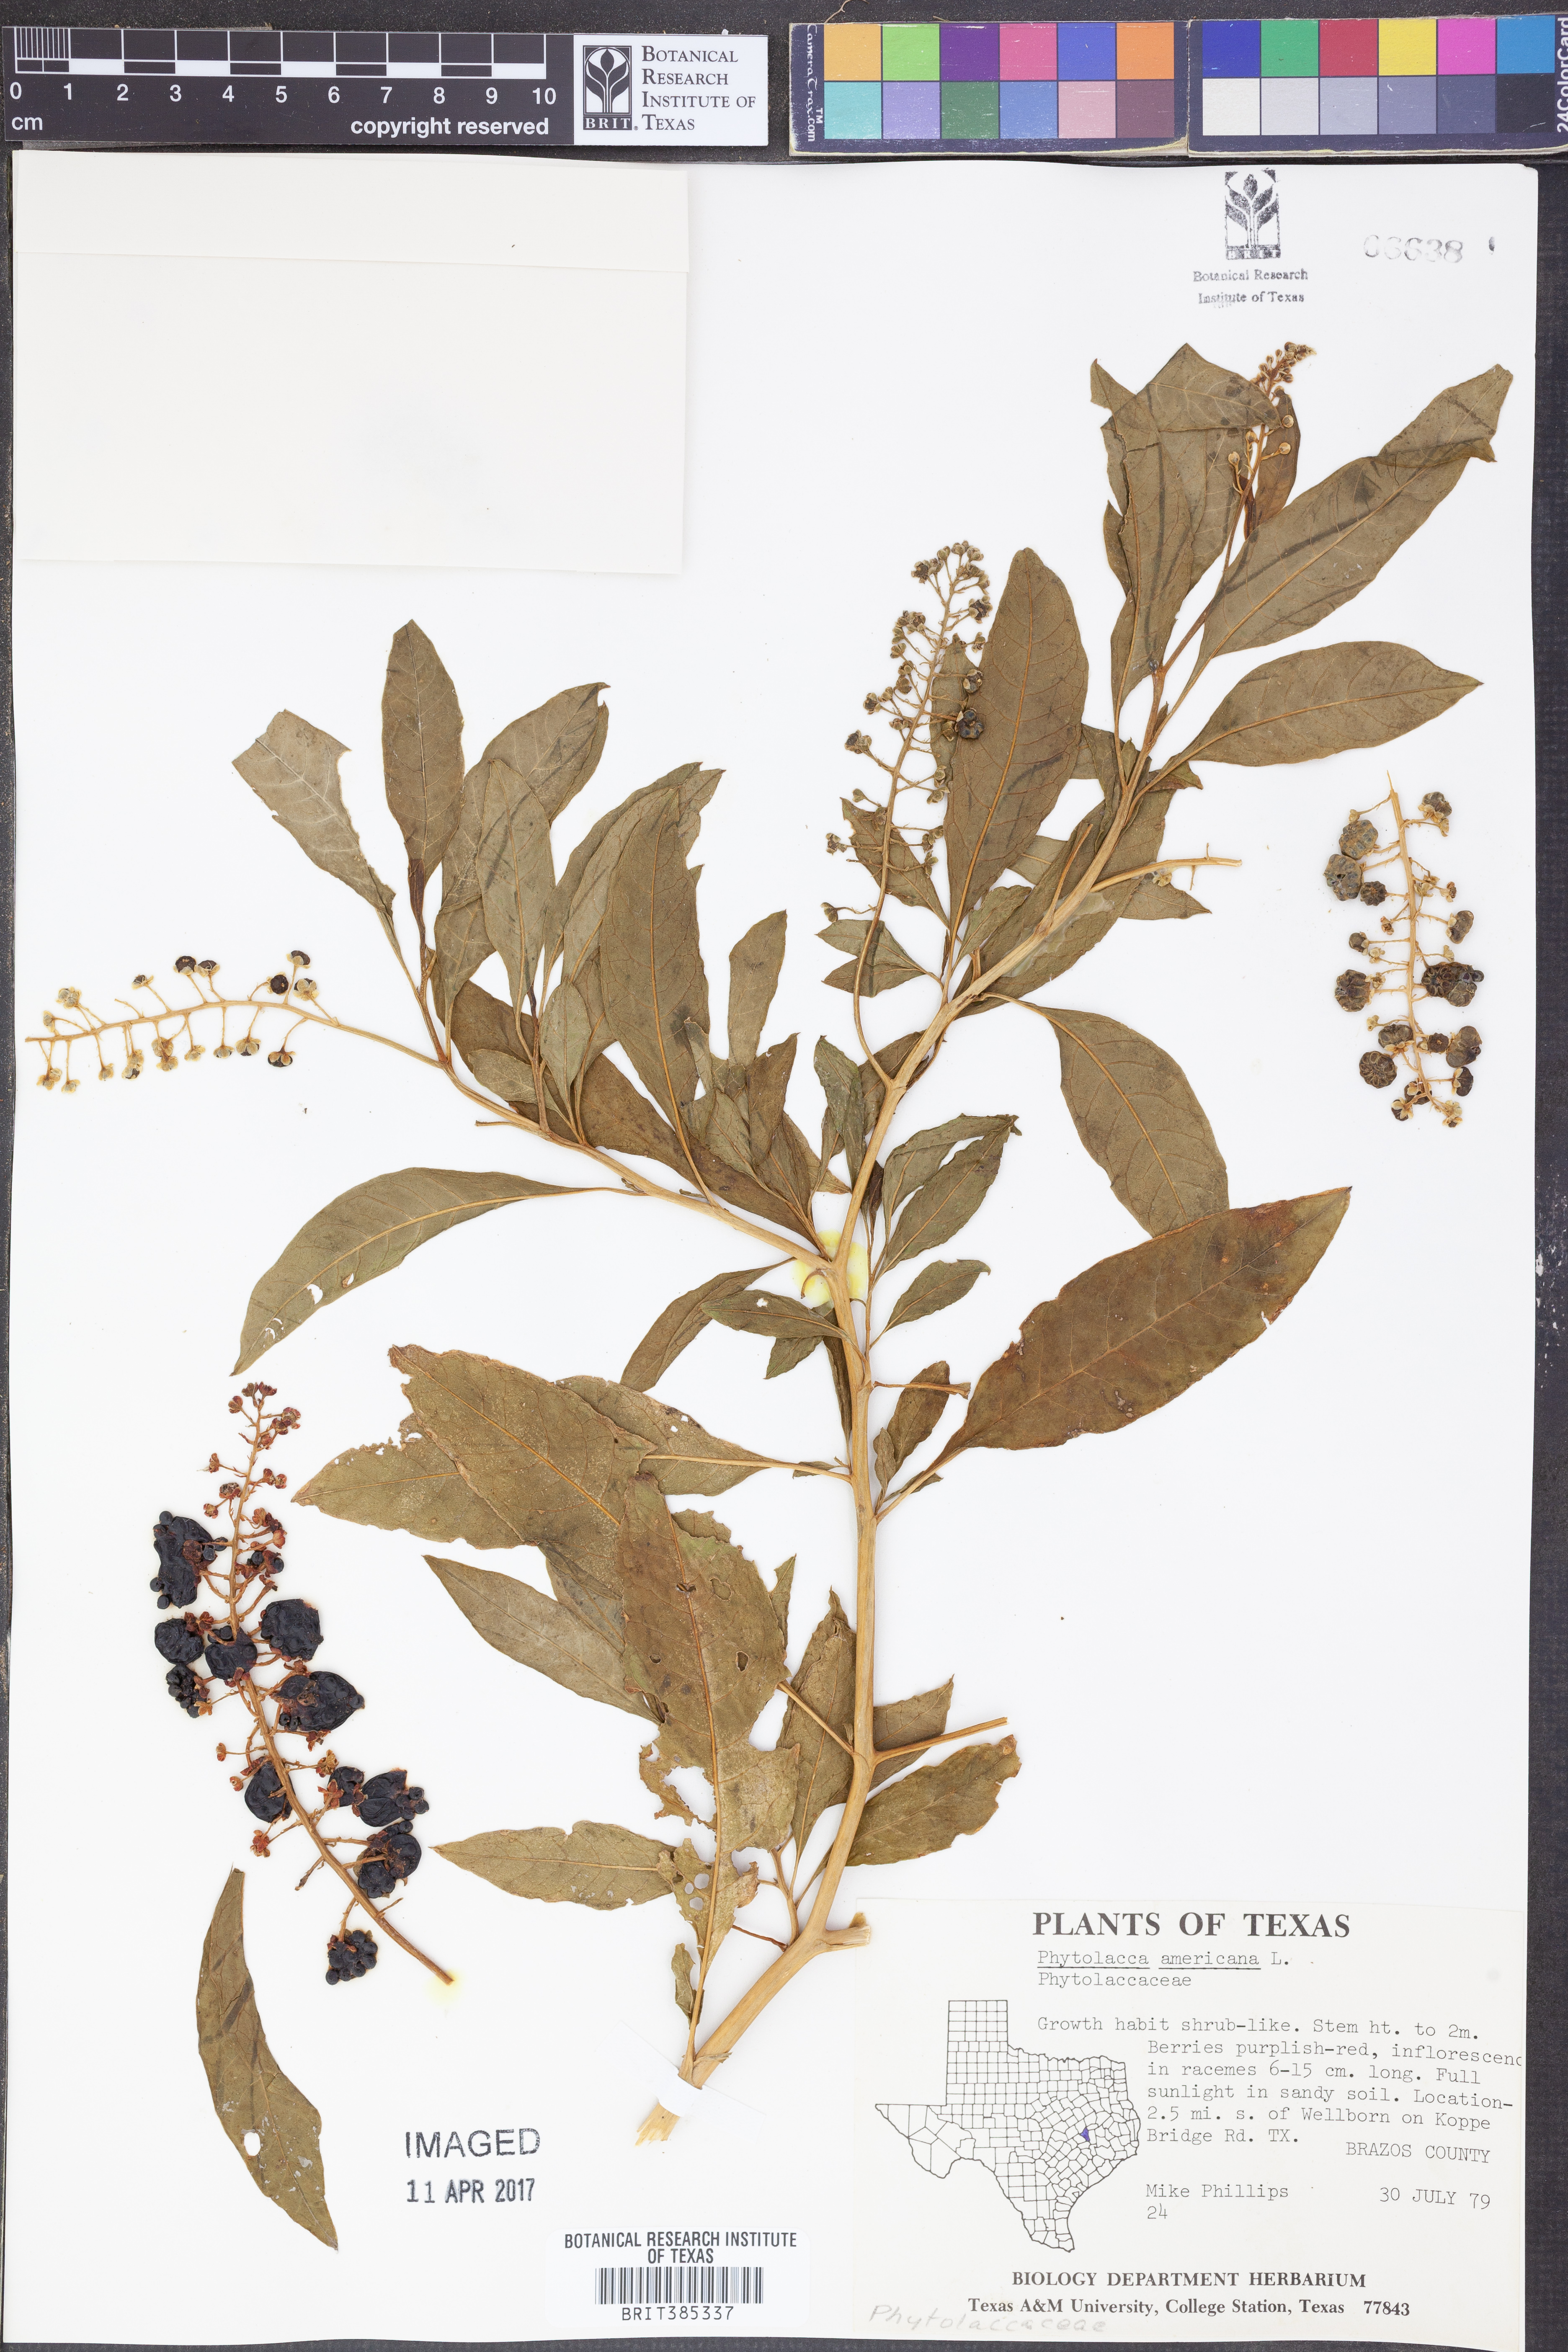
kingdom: Plantae
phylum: Tracheophyta
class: Magnoliopsida
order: Caryophyllales
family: Phytolaccaceae
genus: Phytolacca
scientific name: Phytolacca americana
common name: American pokeweed
